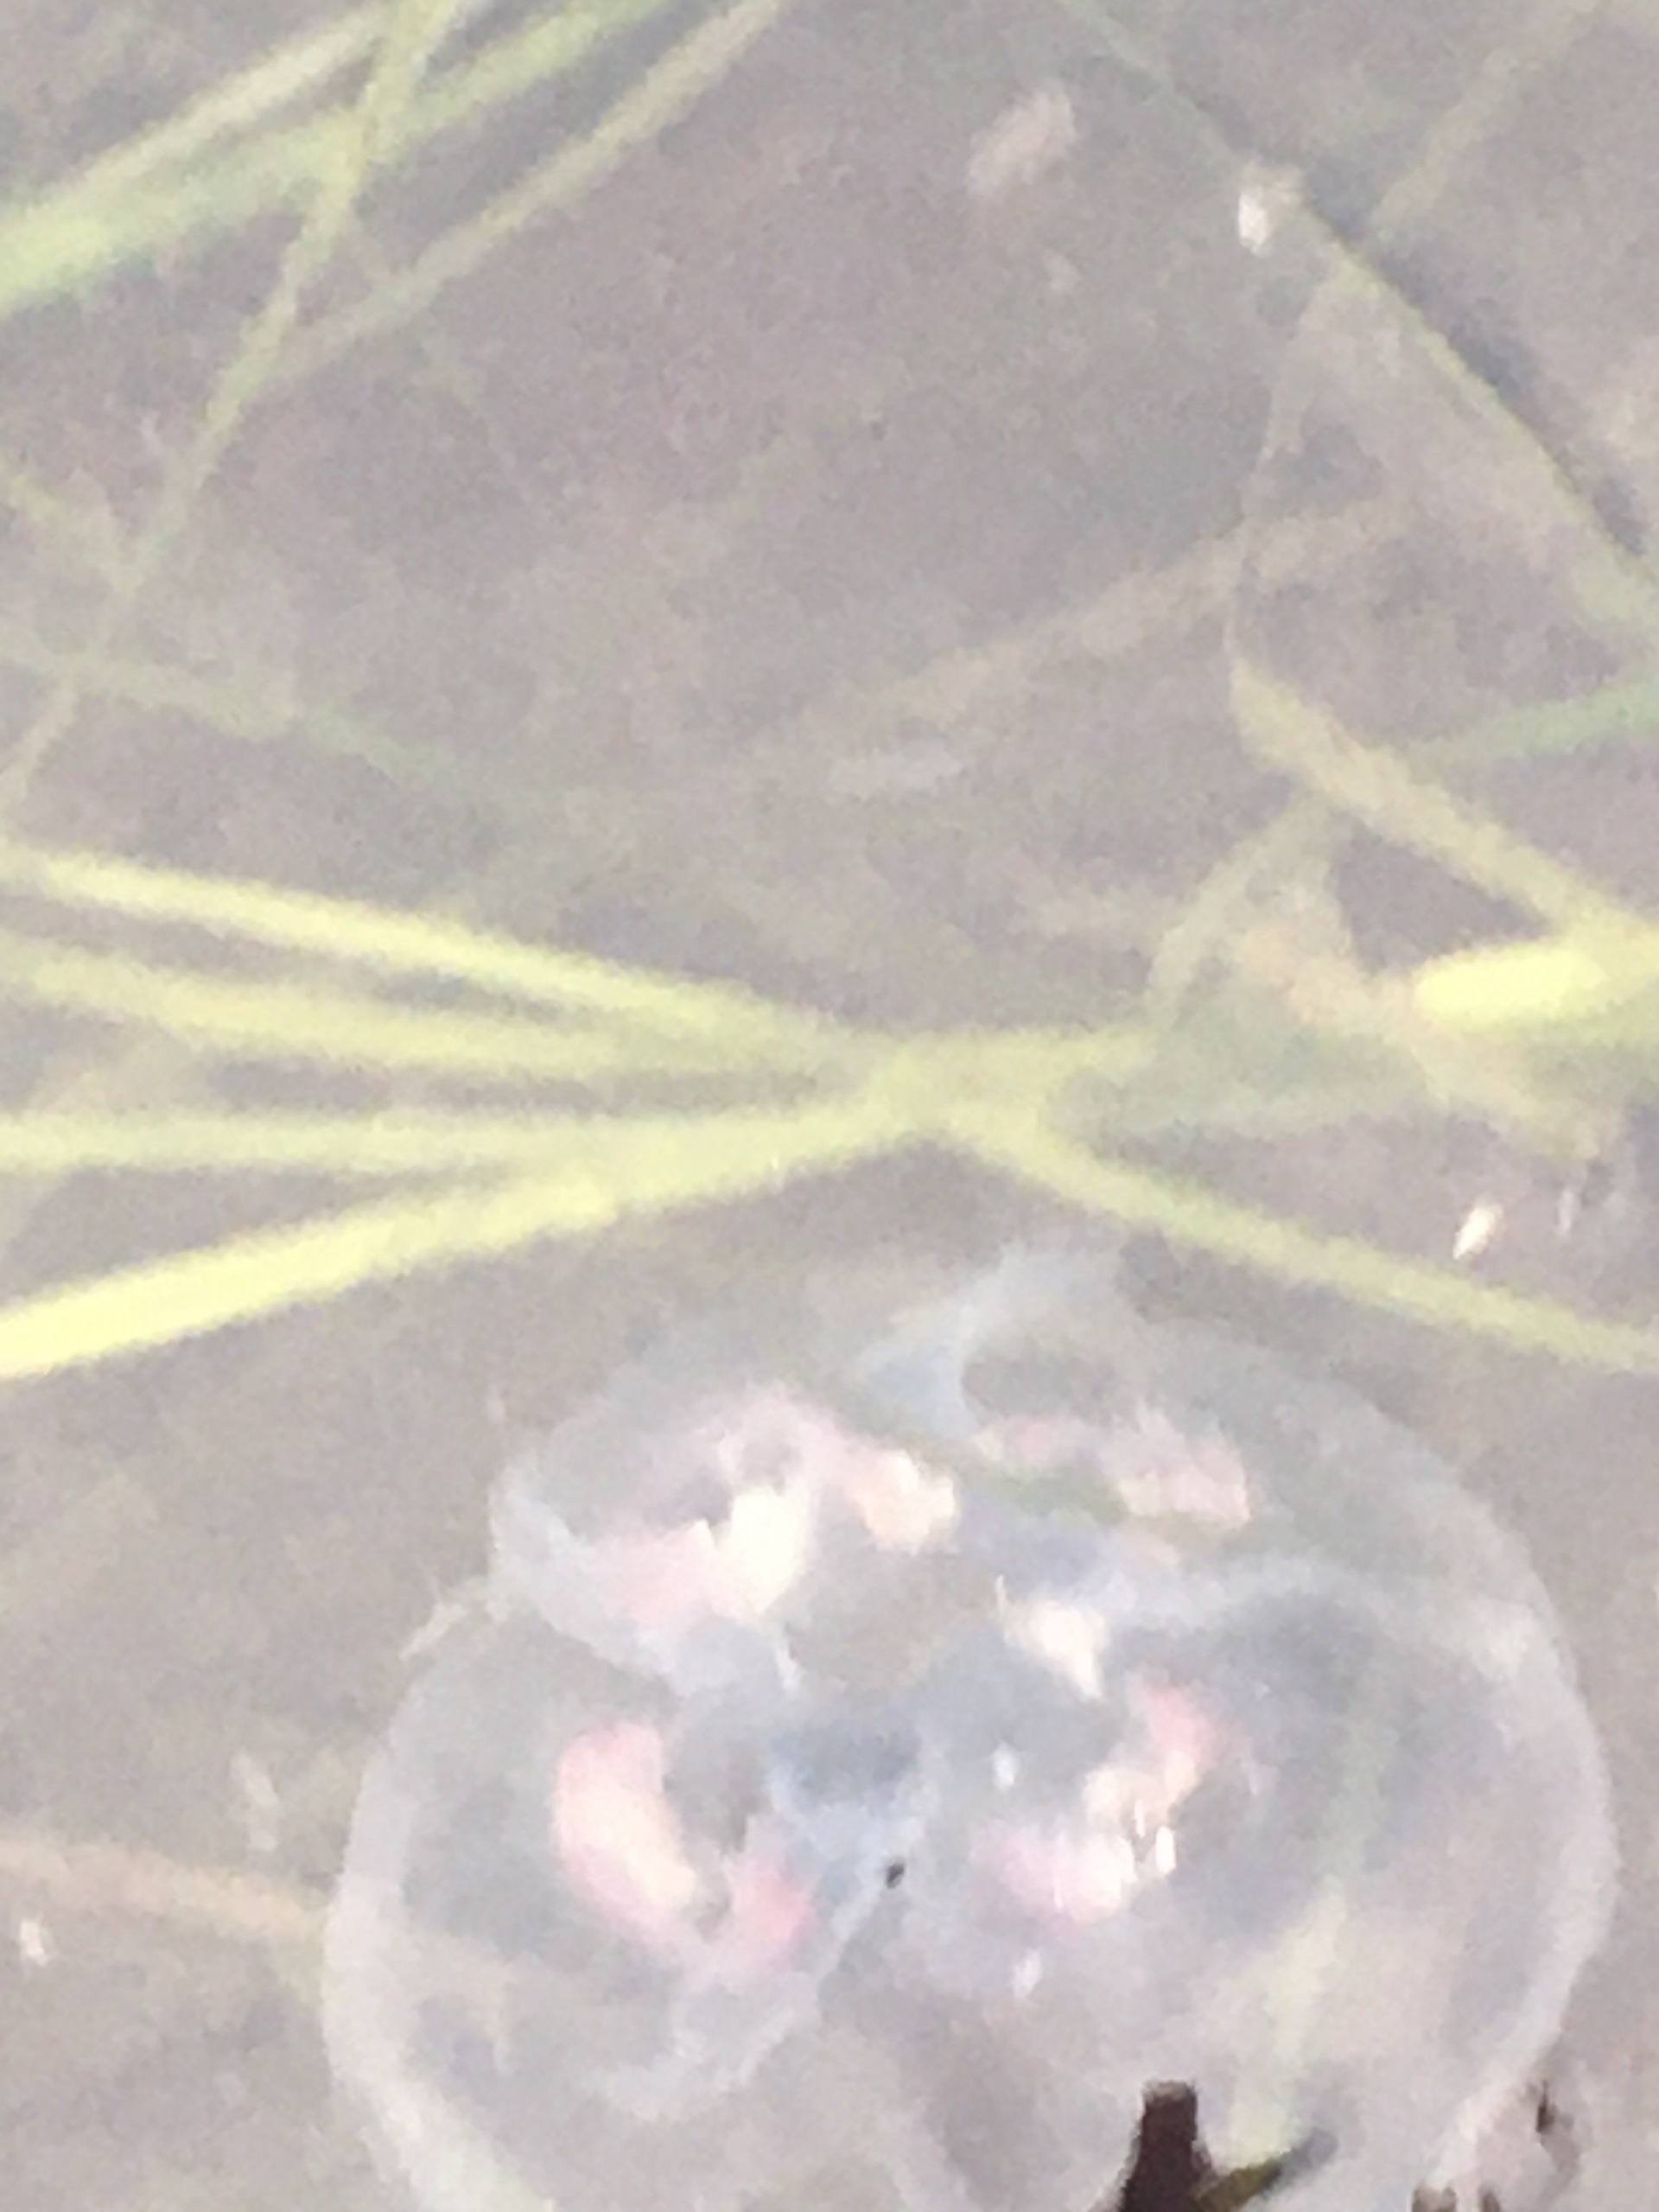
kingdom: Animalia
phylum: Cnidaria
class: Scyphozoa
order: Semaeostomeae
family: Ulmaridae
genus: Aurelia
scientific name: Aurelia aurita
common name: Almindelig vandmand
